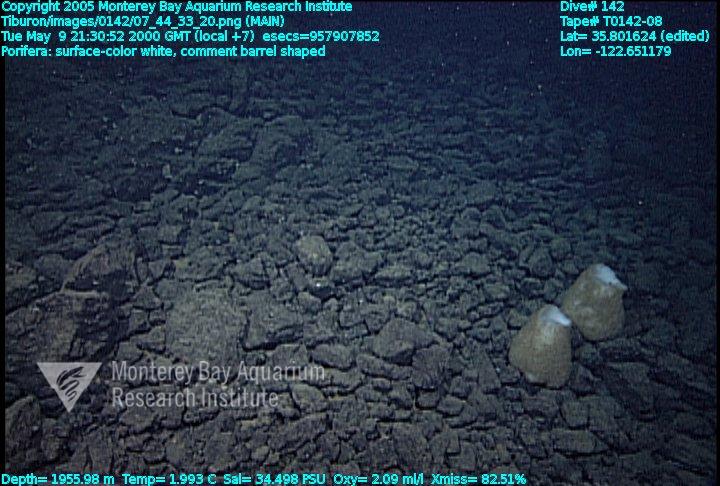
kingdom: Animalia
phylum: Porifera
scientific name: Porifera
